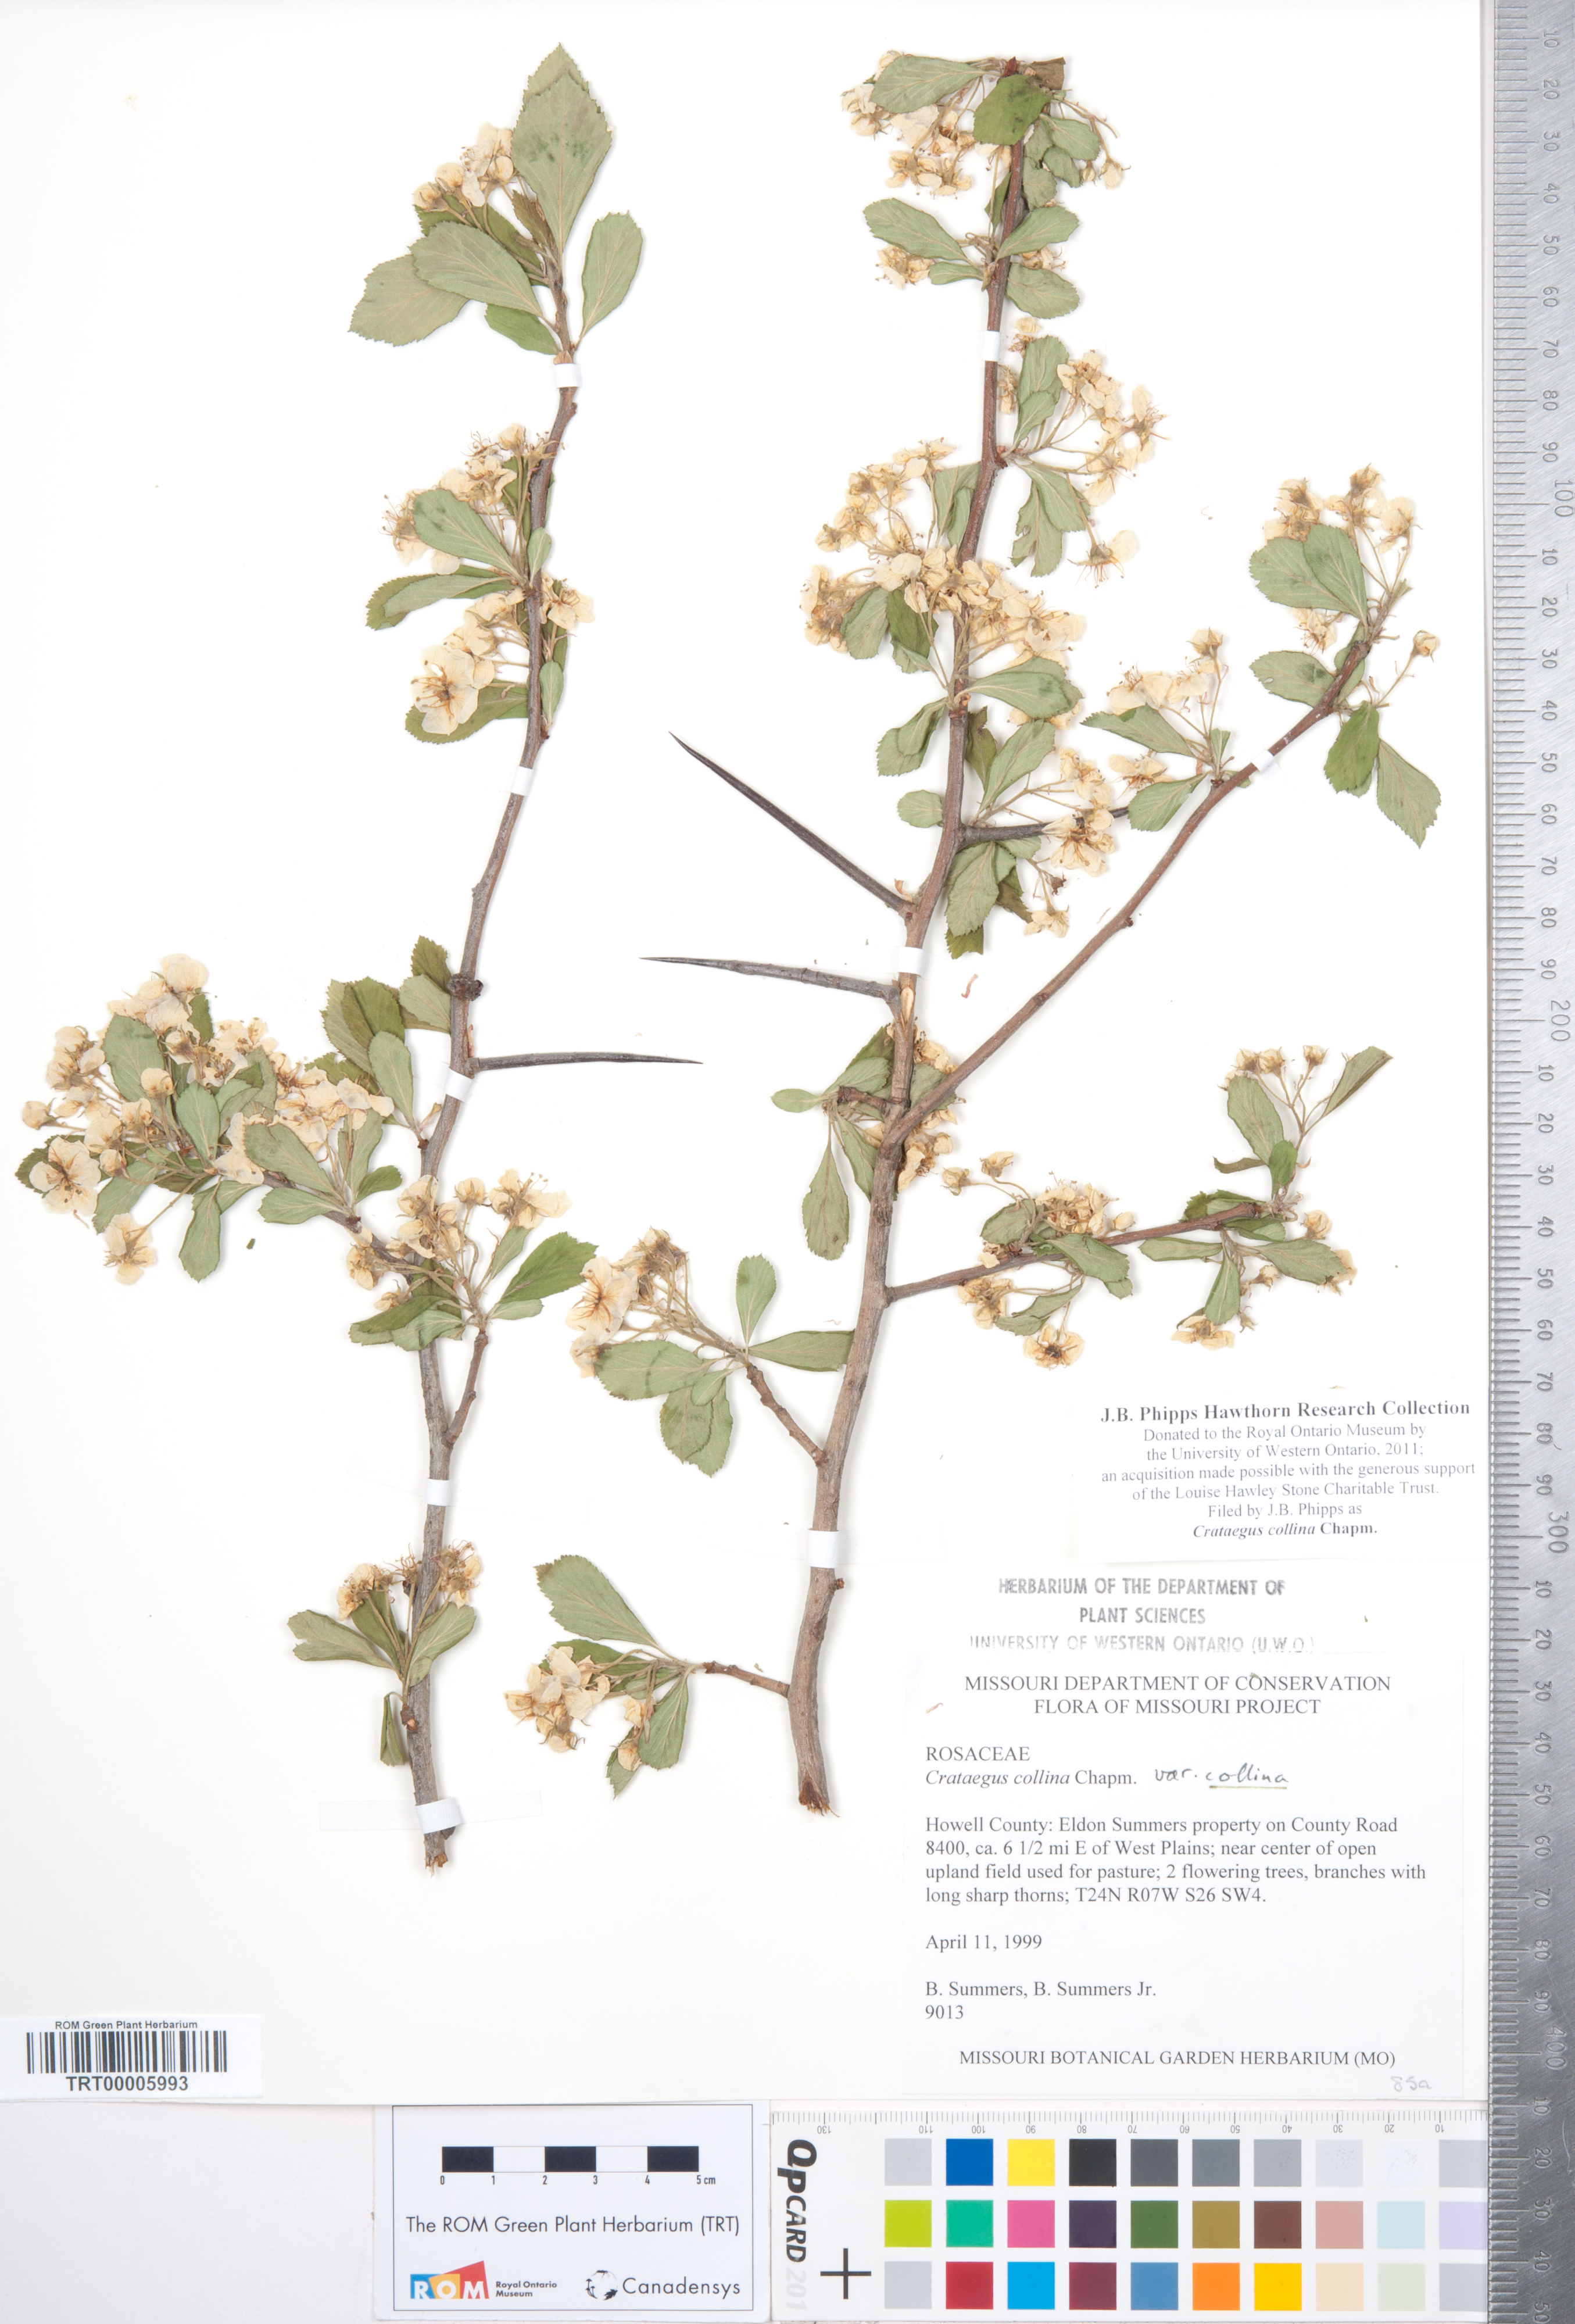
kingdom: Plantae
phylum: Tracheophyta
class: Magnoliopsida
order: Rosales
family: Rosaceae
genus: Crataegus
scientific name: Crataegus collina
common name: Hillside hawthorn
